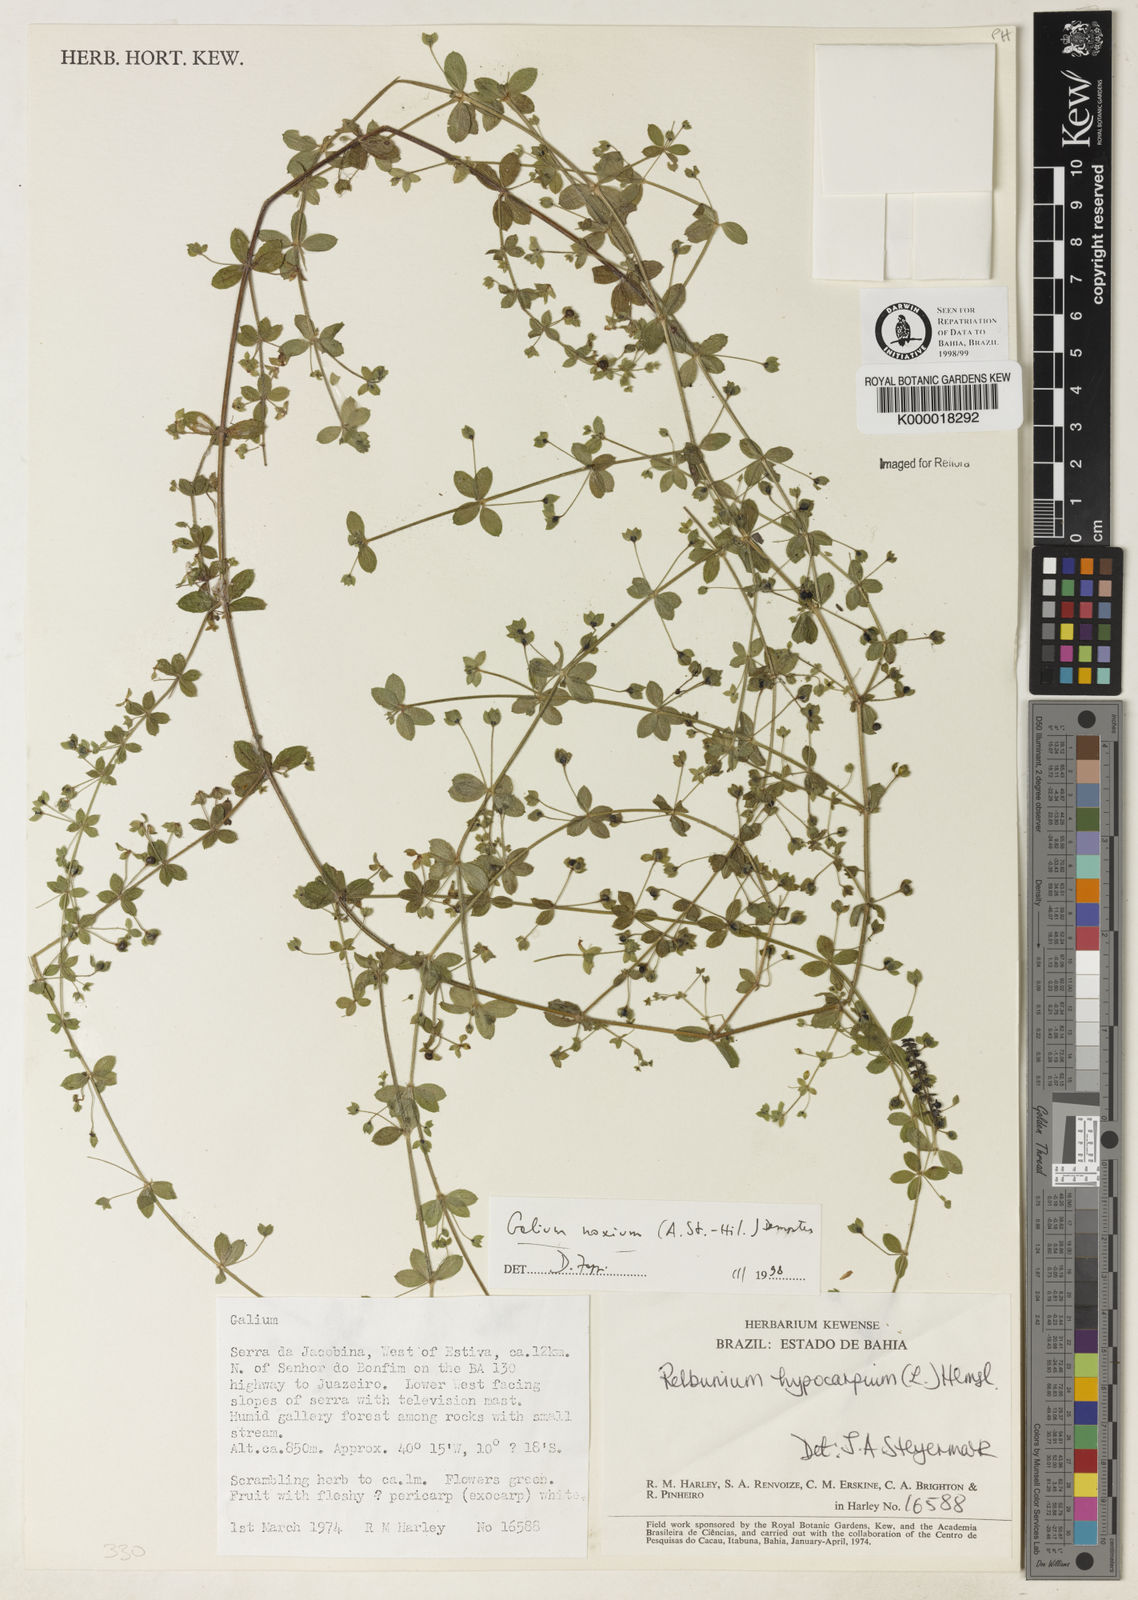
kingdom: Plantae
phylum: Tracheophyta
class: Magnoliopsida
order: Gentianales
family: Rubiaceae
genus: Galium
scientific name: Galium noxium
